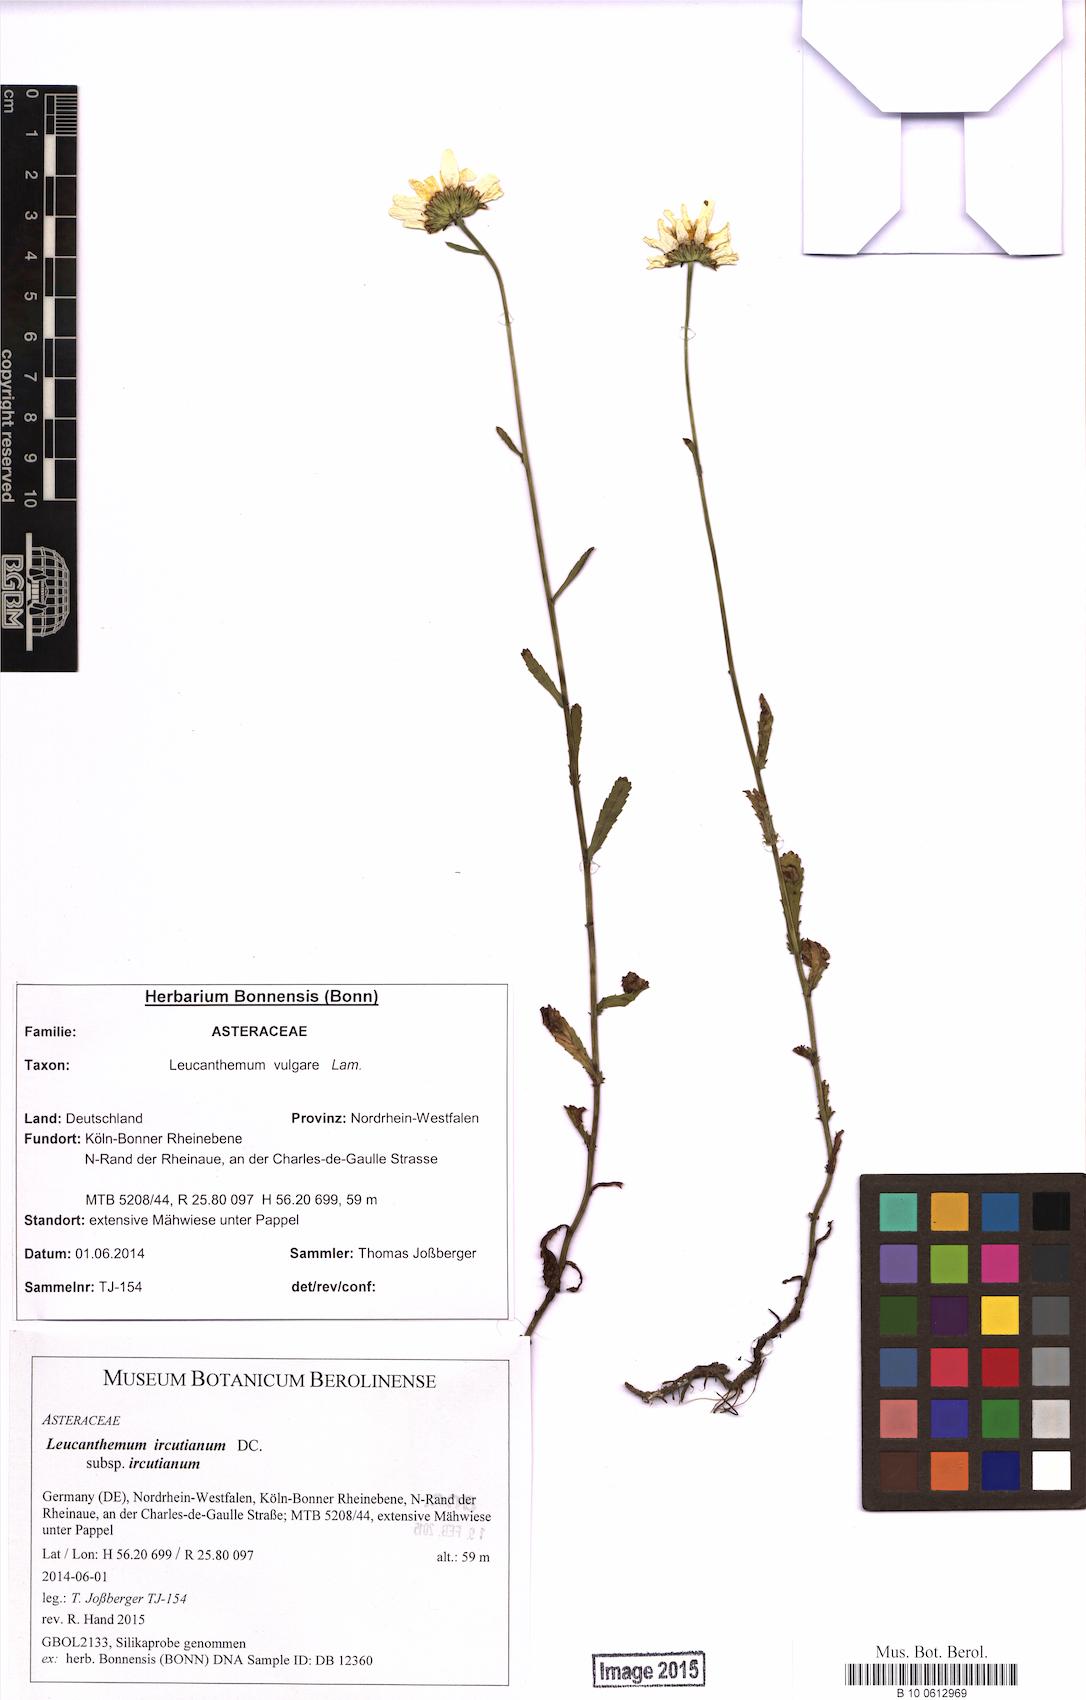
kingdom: Plantae
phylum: Tracheophyta
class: Magnoliopsida
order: Asterales
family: Asteraceae
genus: Leucanthemum
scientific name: Leucanthemum ircutianum
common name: Daisy
